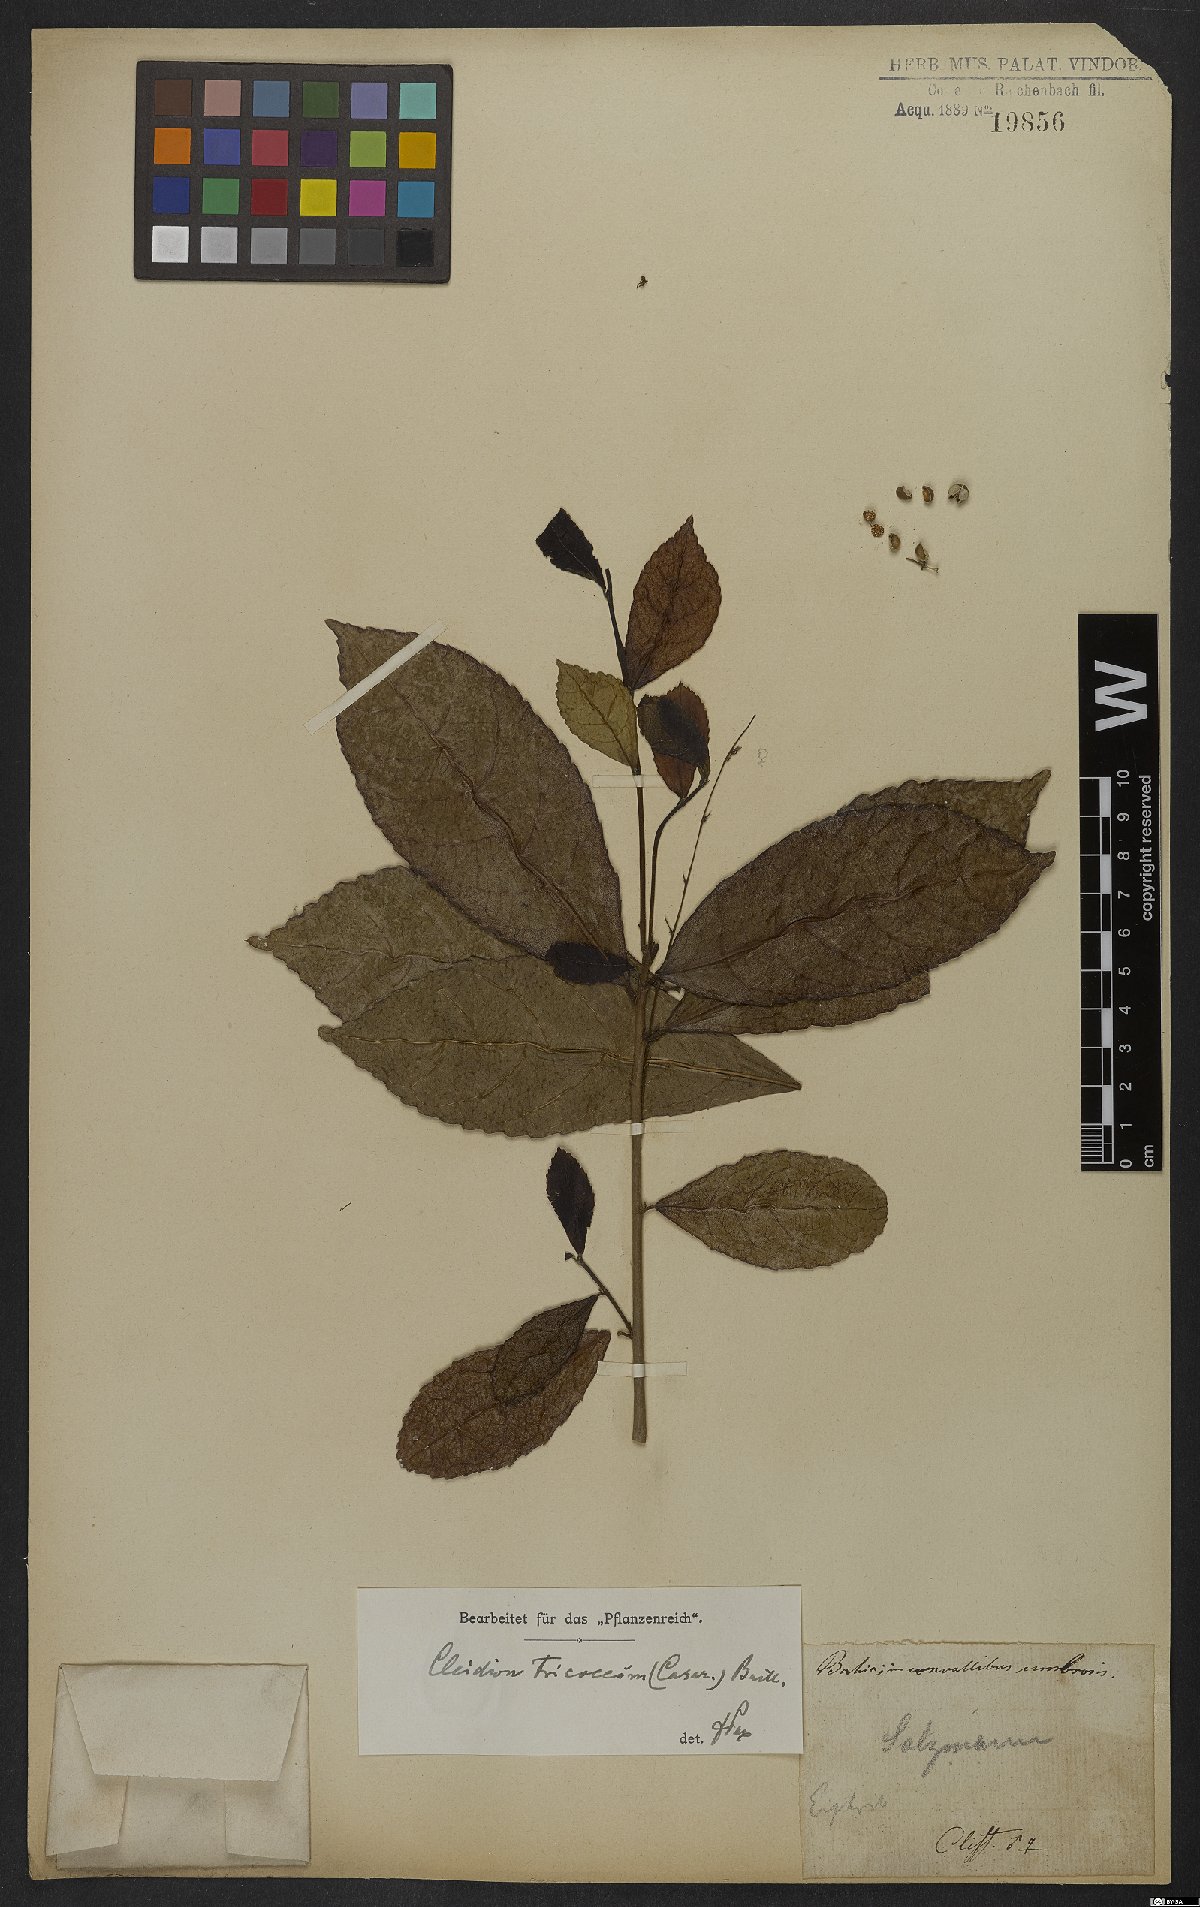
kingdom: Plantae
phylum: Tracheophyta
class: Magnoliopsida
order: Malpighiales
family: Euphorbiaceae
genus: Cleidion
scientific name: Cleidion tricoccum
